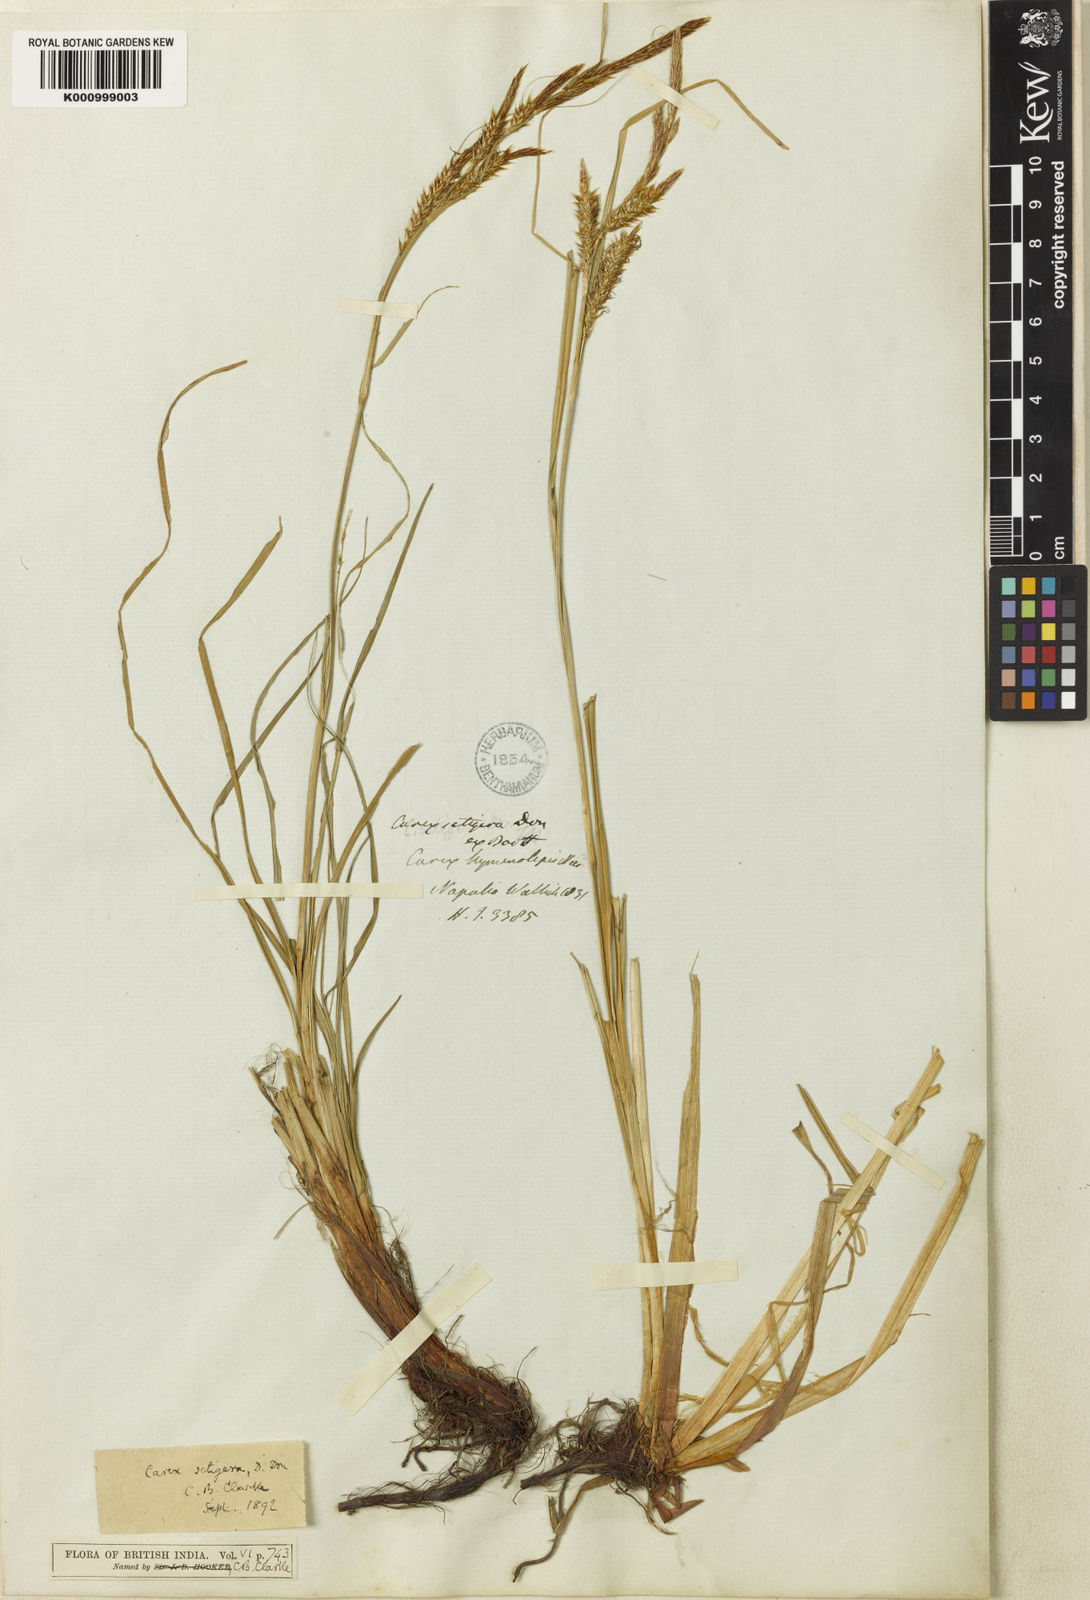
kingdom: Plantae
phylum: Tracheophyta
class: Liliopsida
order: Poales
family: Cyperaceae
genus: Carex
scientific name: Carex setigera
